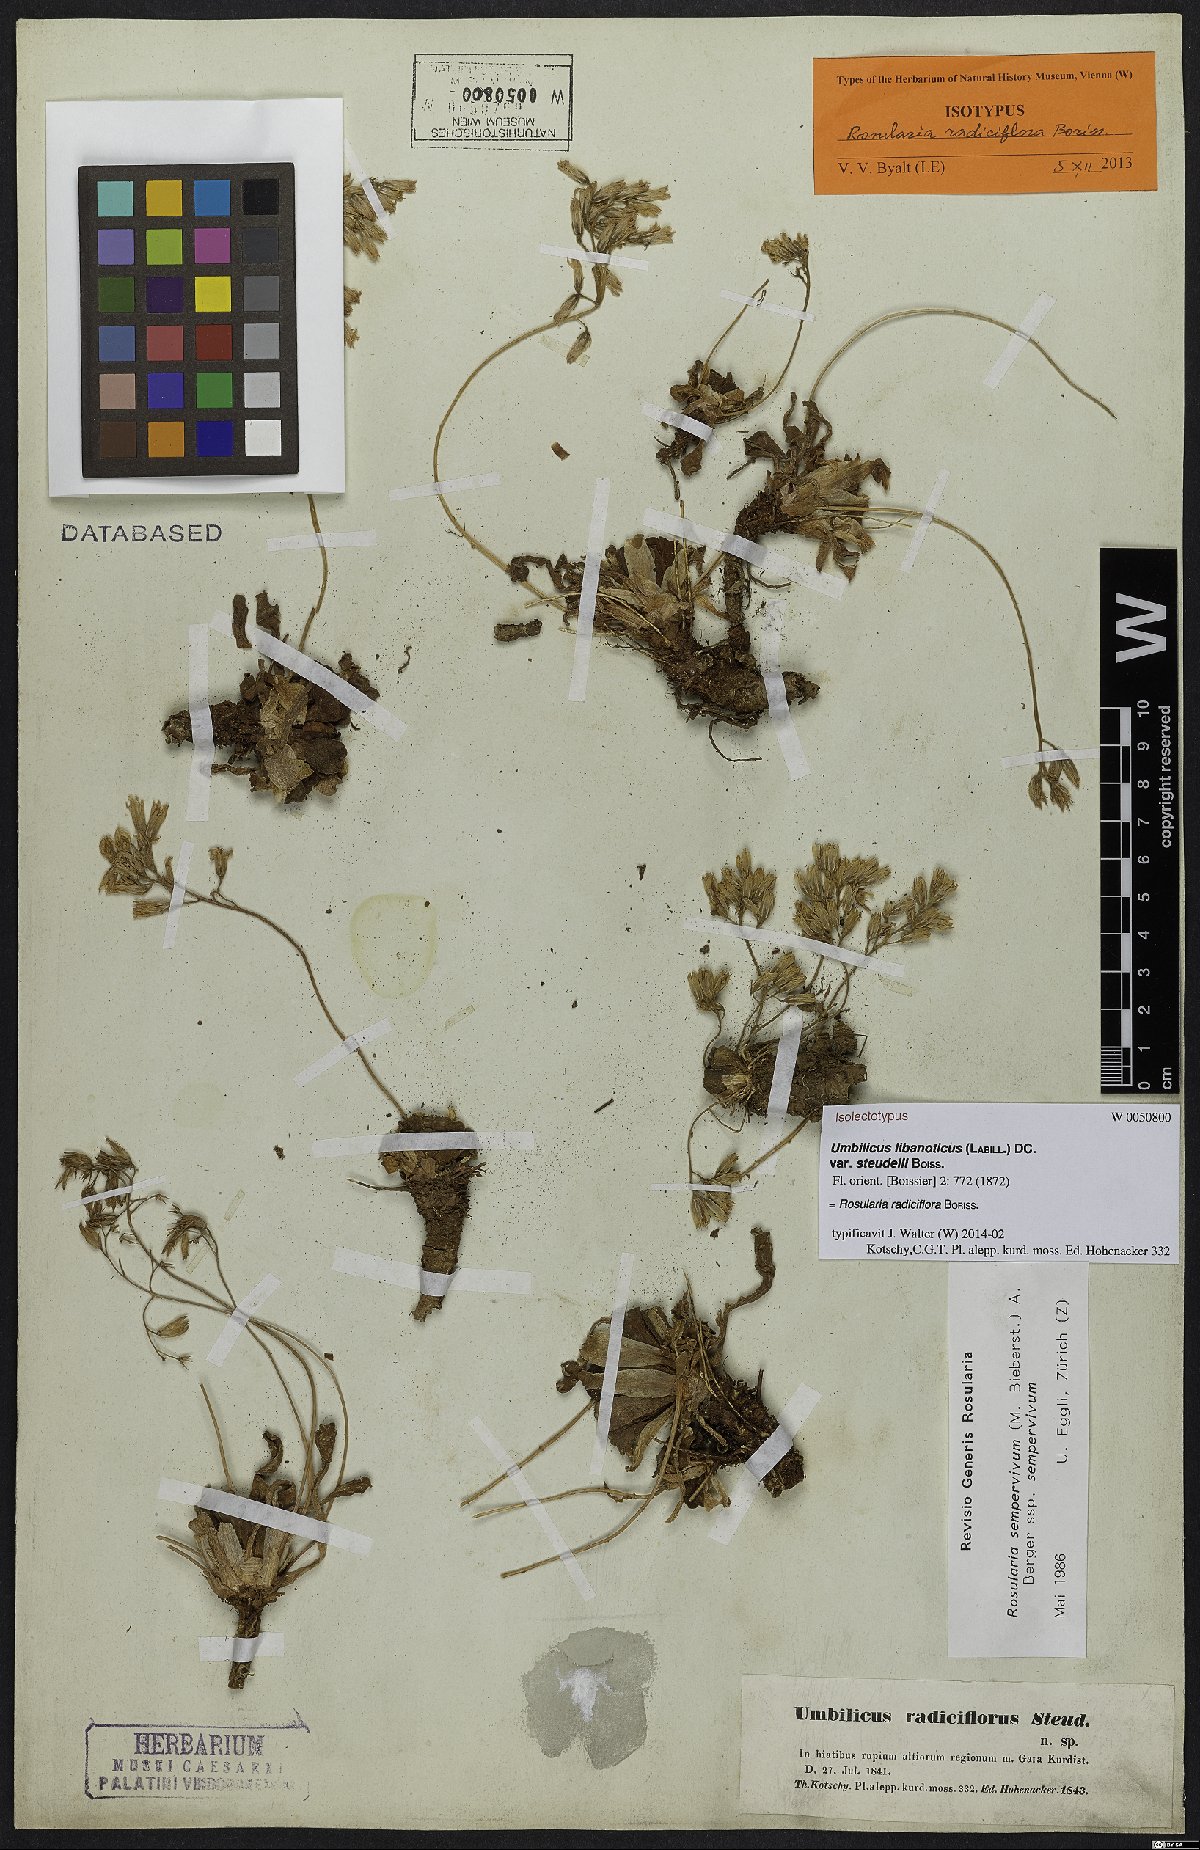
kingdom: Plantae
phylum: Tracheophyta
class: Magnoliopsida
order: Saxifragales
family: Crassulaceae
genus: Rosularia
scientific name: Rosularia sempervivum
